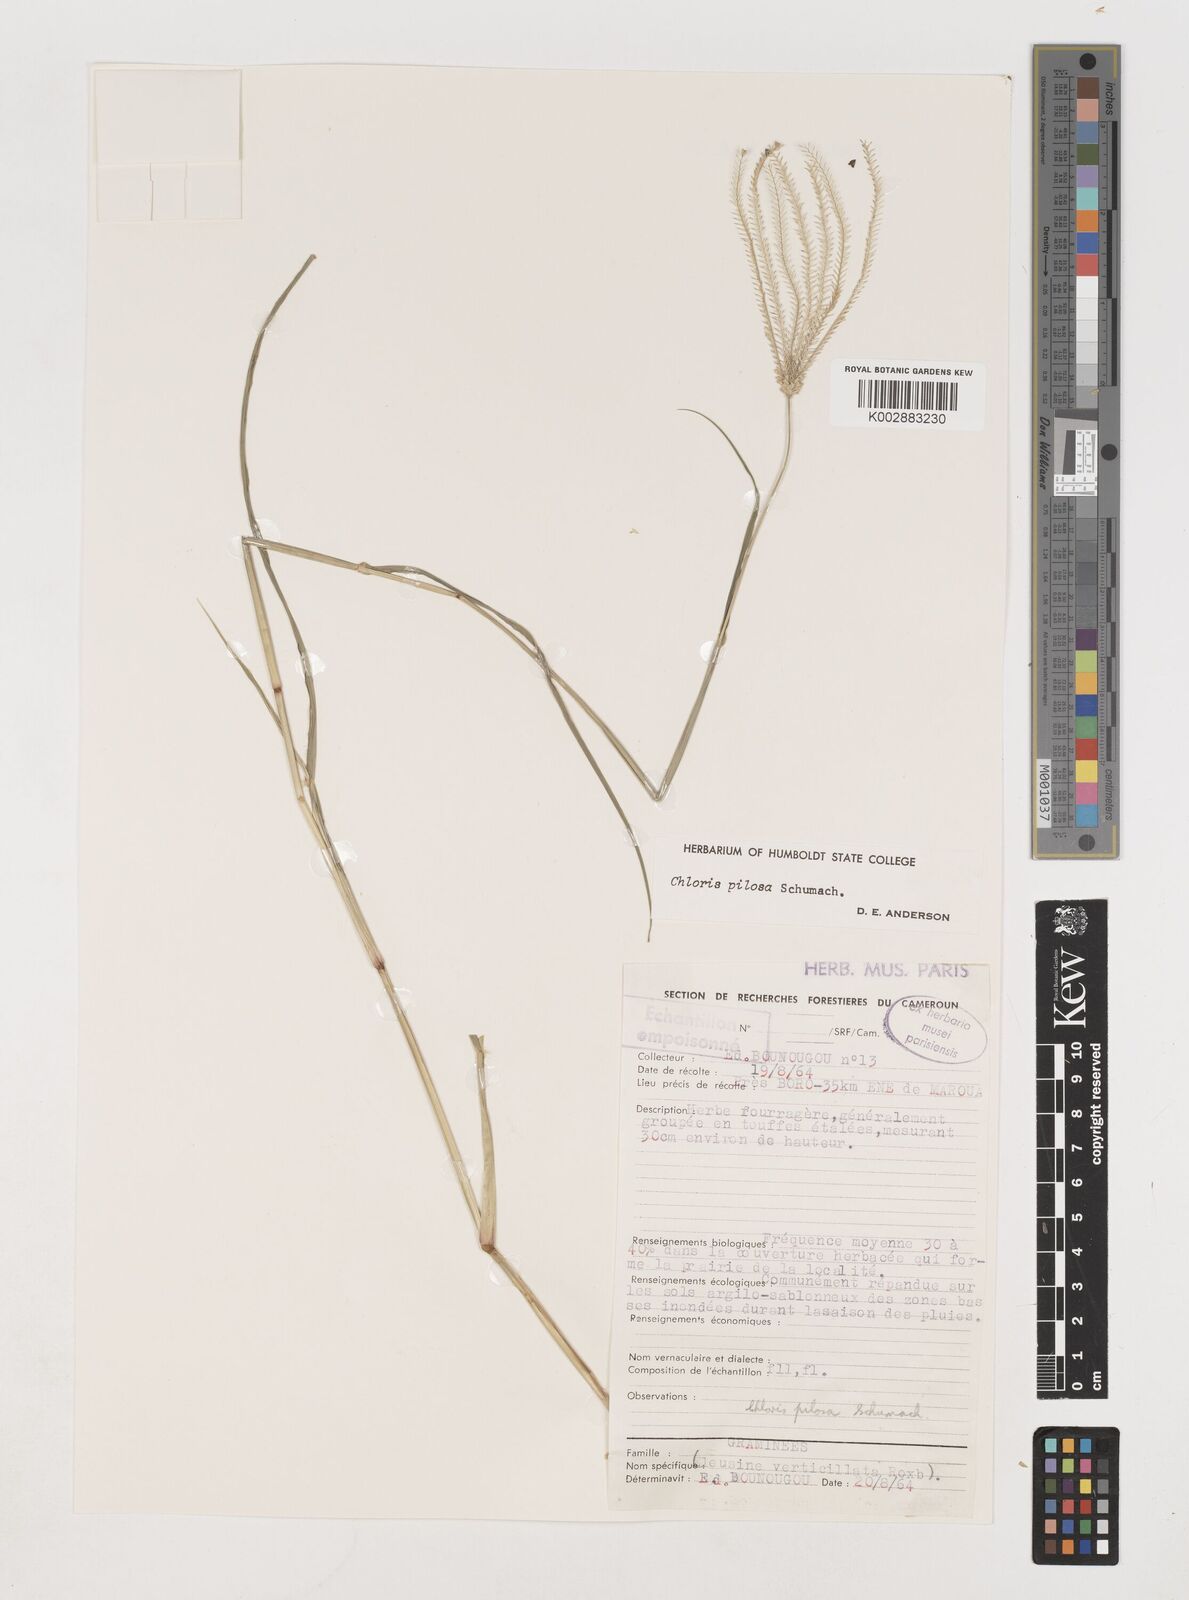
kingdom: Plantae
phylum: Tracheophyta
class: Liliopsida
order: Poales
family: Poaceae
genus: Chloris
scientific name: Chloris pilosa
